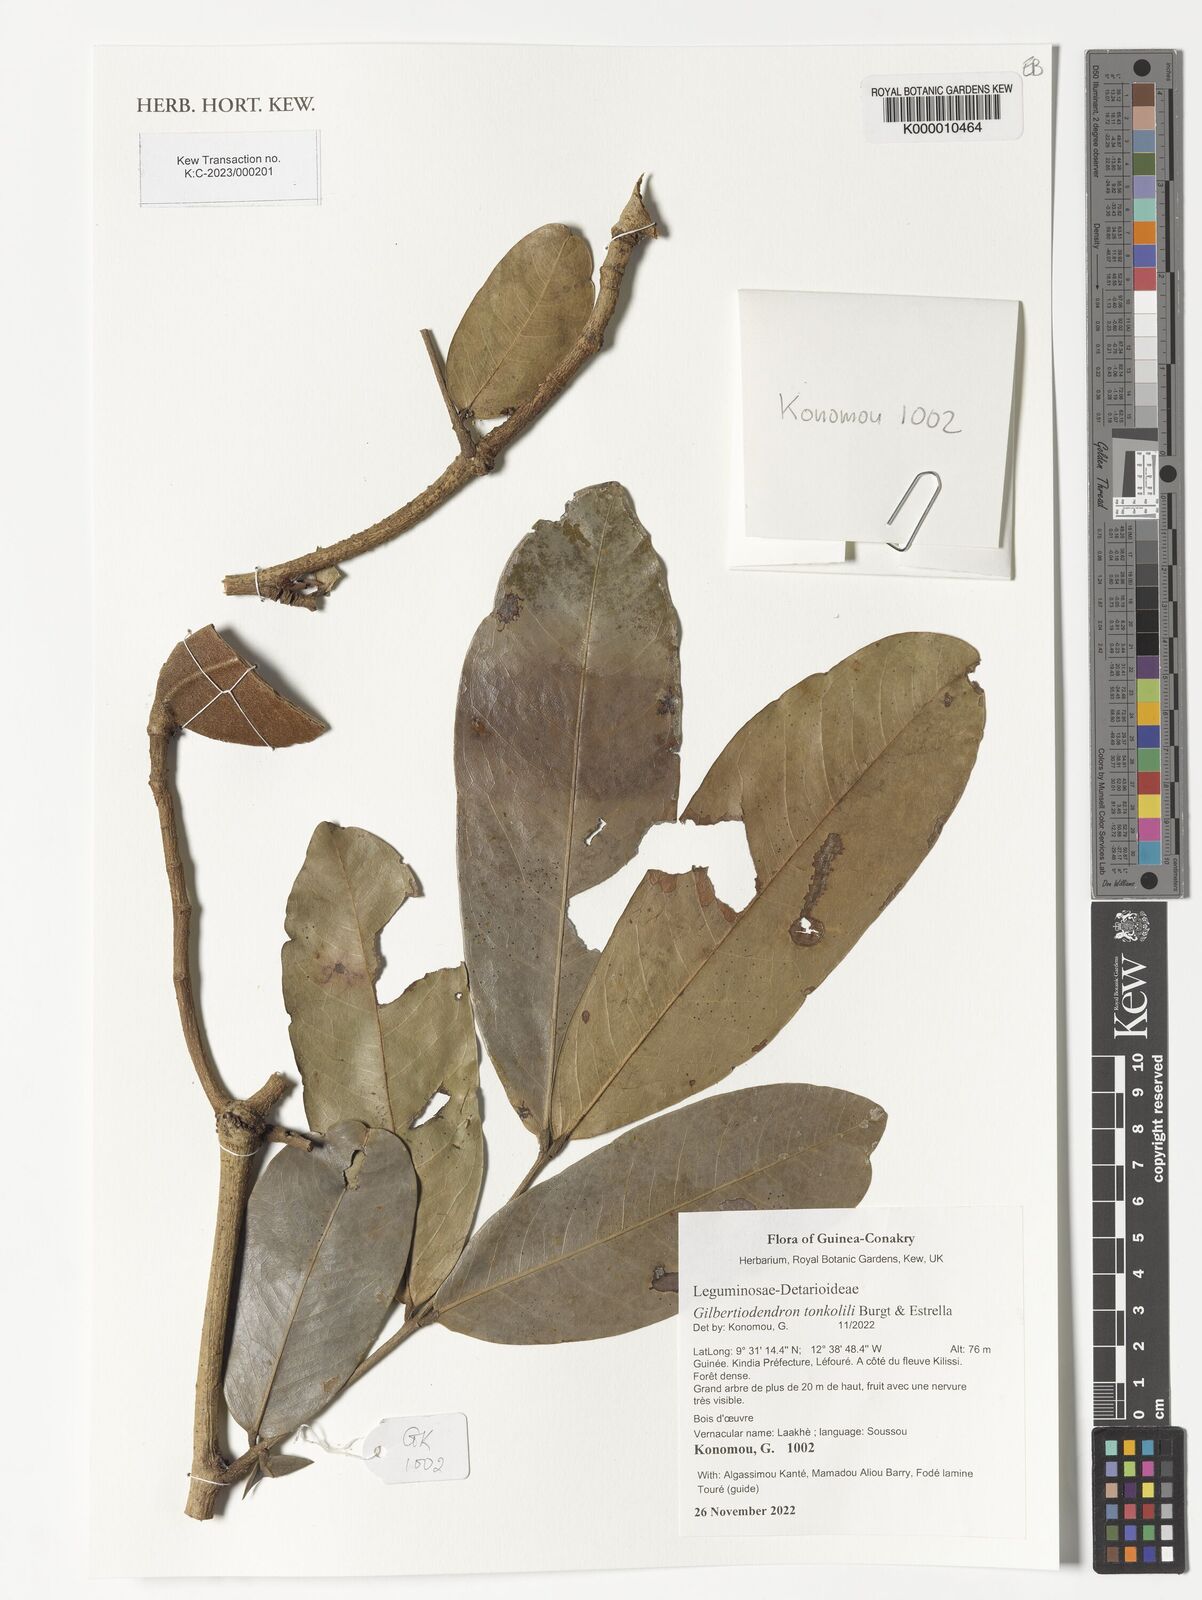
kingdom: Plantae
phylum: Tracheophyta
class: Magnoliopsida
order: Fabales
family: Fabaceae
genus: Gilbertiodendron
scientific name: Gilbertiodendron tonkolili
